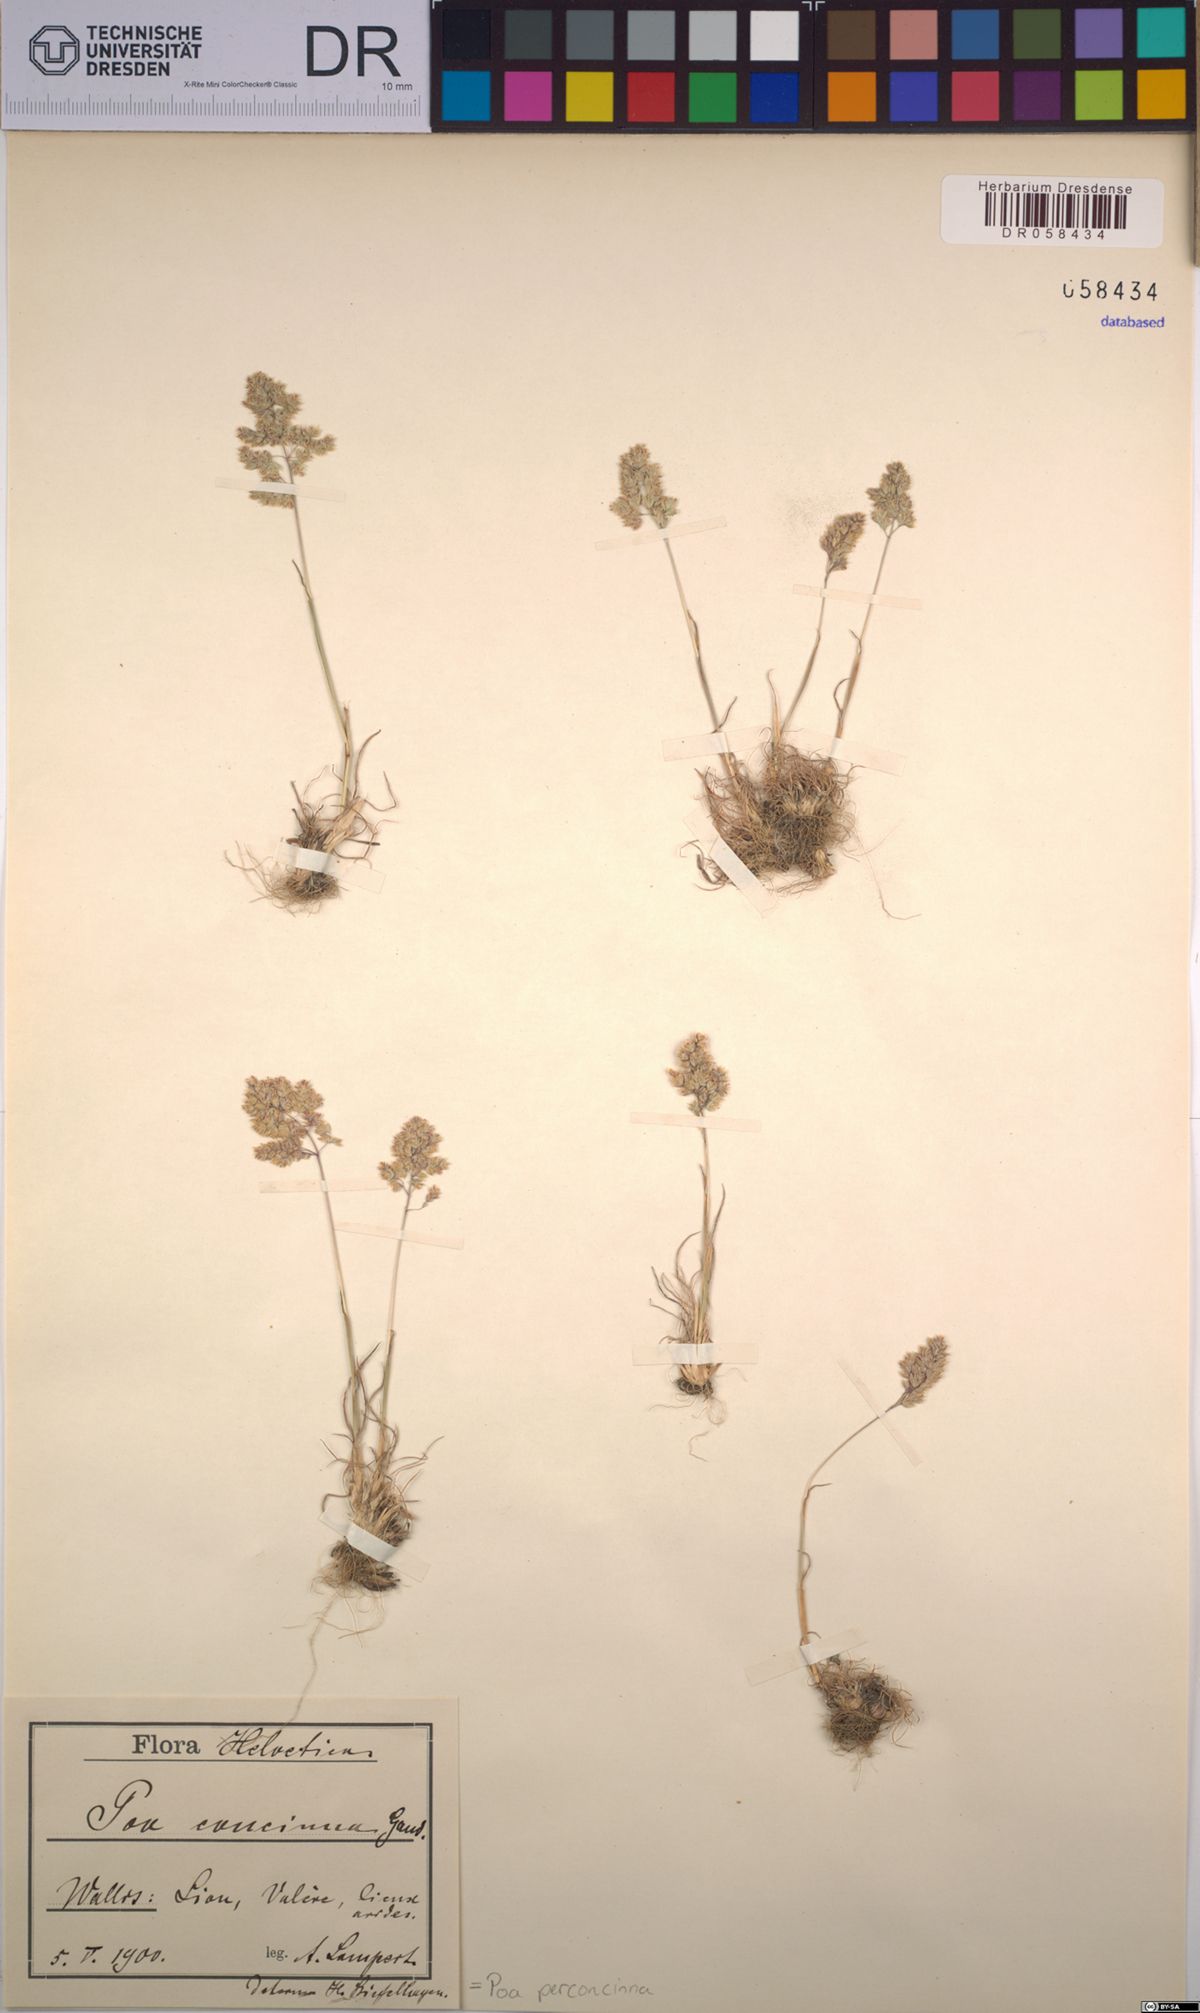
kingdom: Plantae
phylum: Tracheophyta
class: Liliopsida
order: Poales
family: Poaceae
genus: Poa
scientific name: Poa perconcinna
